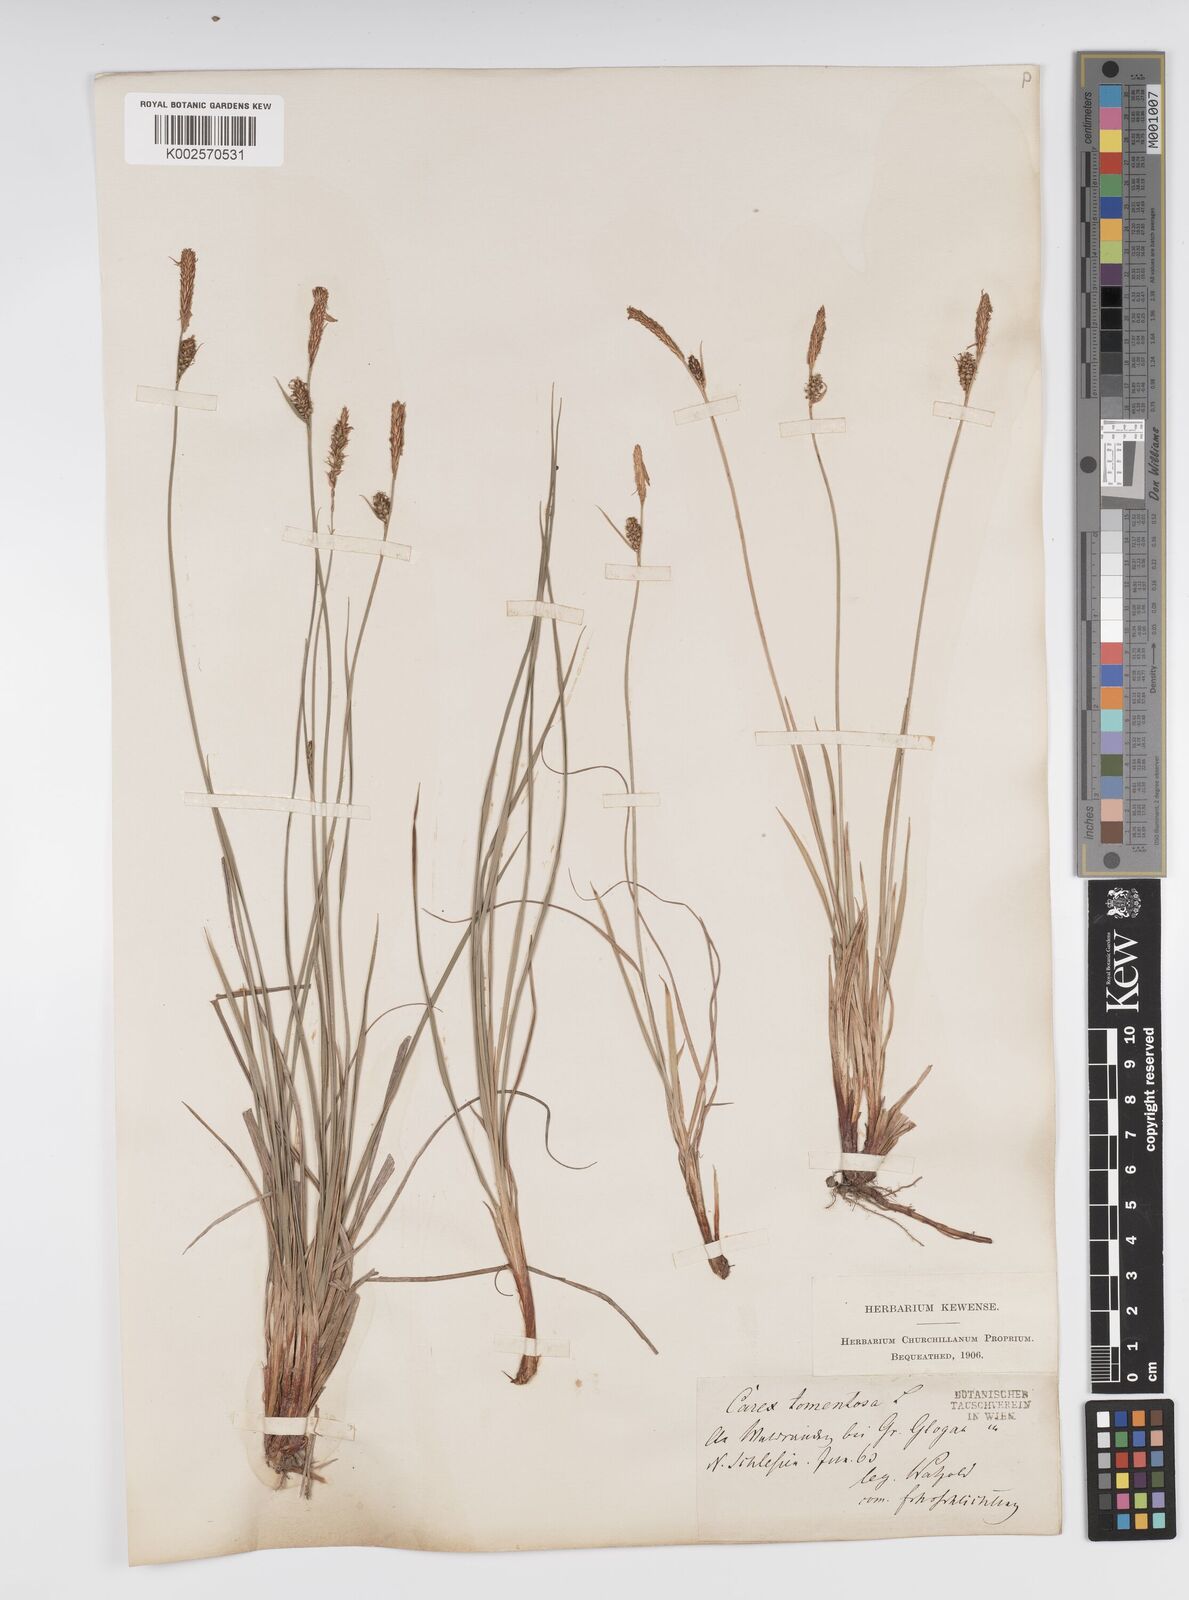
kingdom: Plantae
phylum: Tracheophyta
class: Liliopsida
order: Poales
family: Cyperaceae
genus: Carex
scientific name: Carex montana
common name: Soft-leaved sedge
